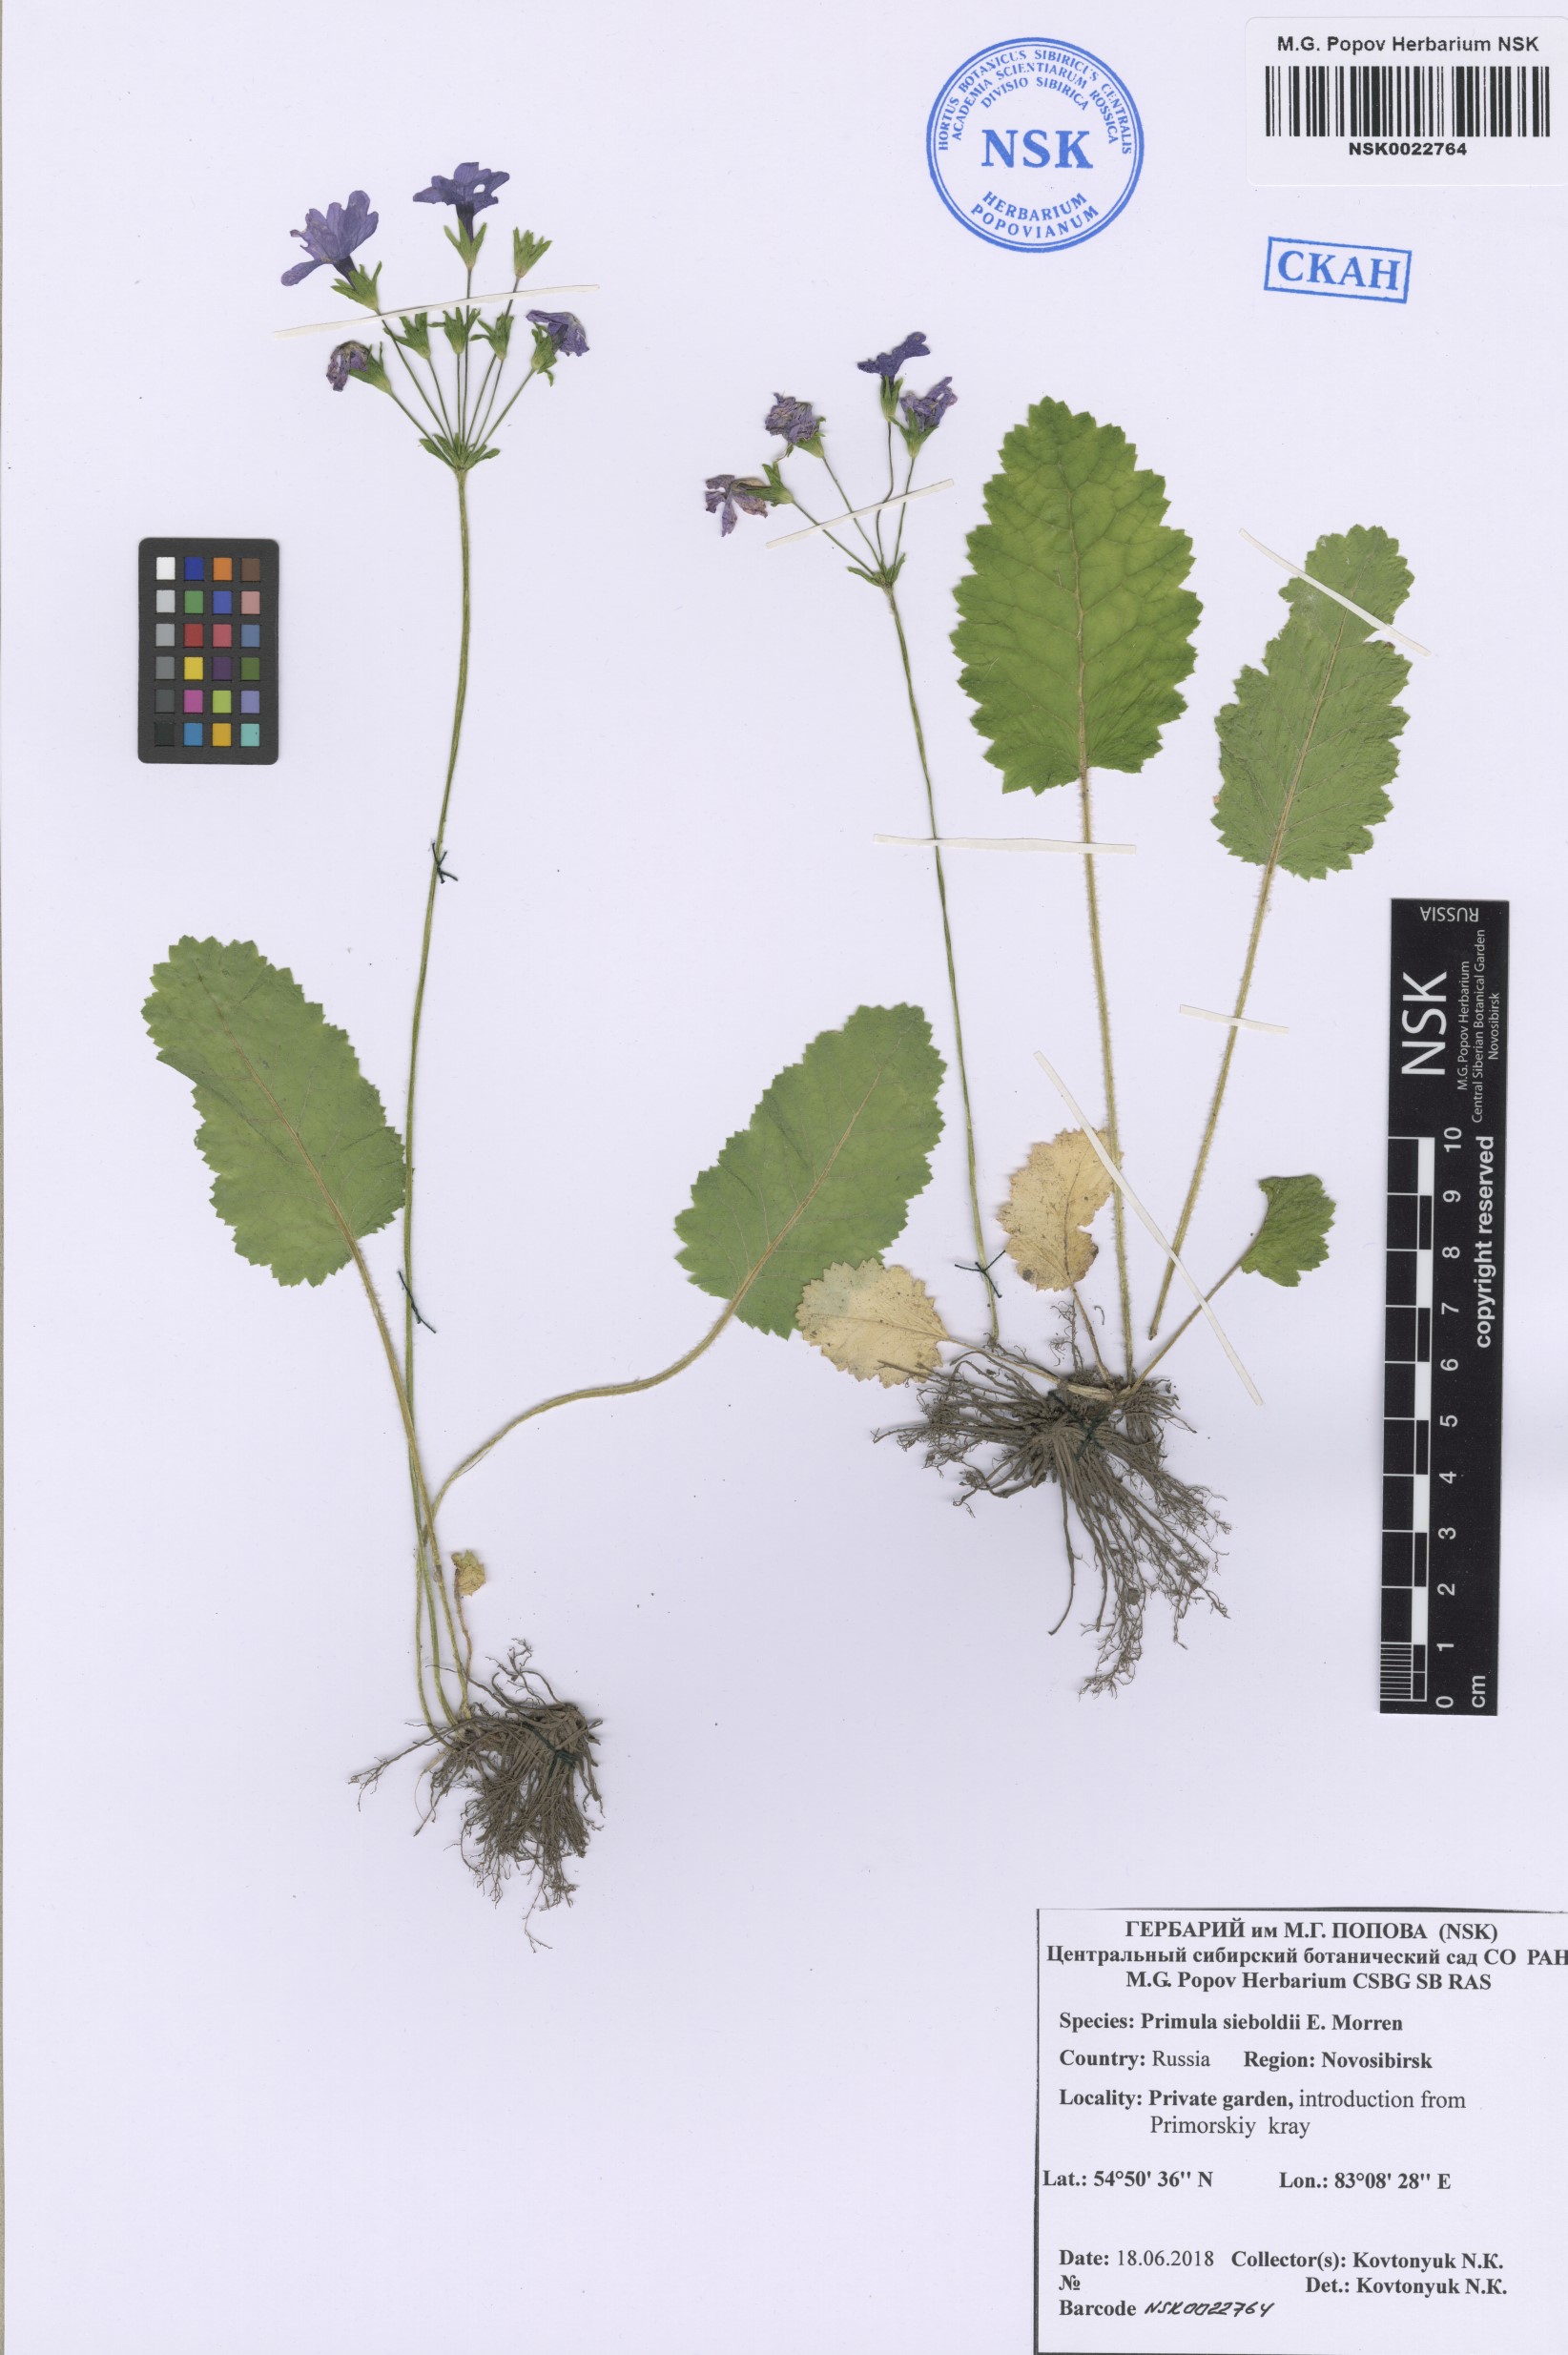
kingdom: Plantae
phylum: Tracheophyta
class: Magnoliopsida
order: Ericales
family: Primulaceae
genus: Primula
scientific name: Primula sieboldii
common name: Japanese primrose
